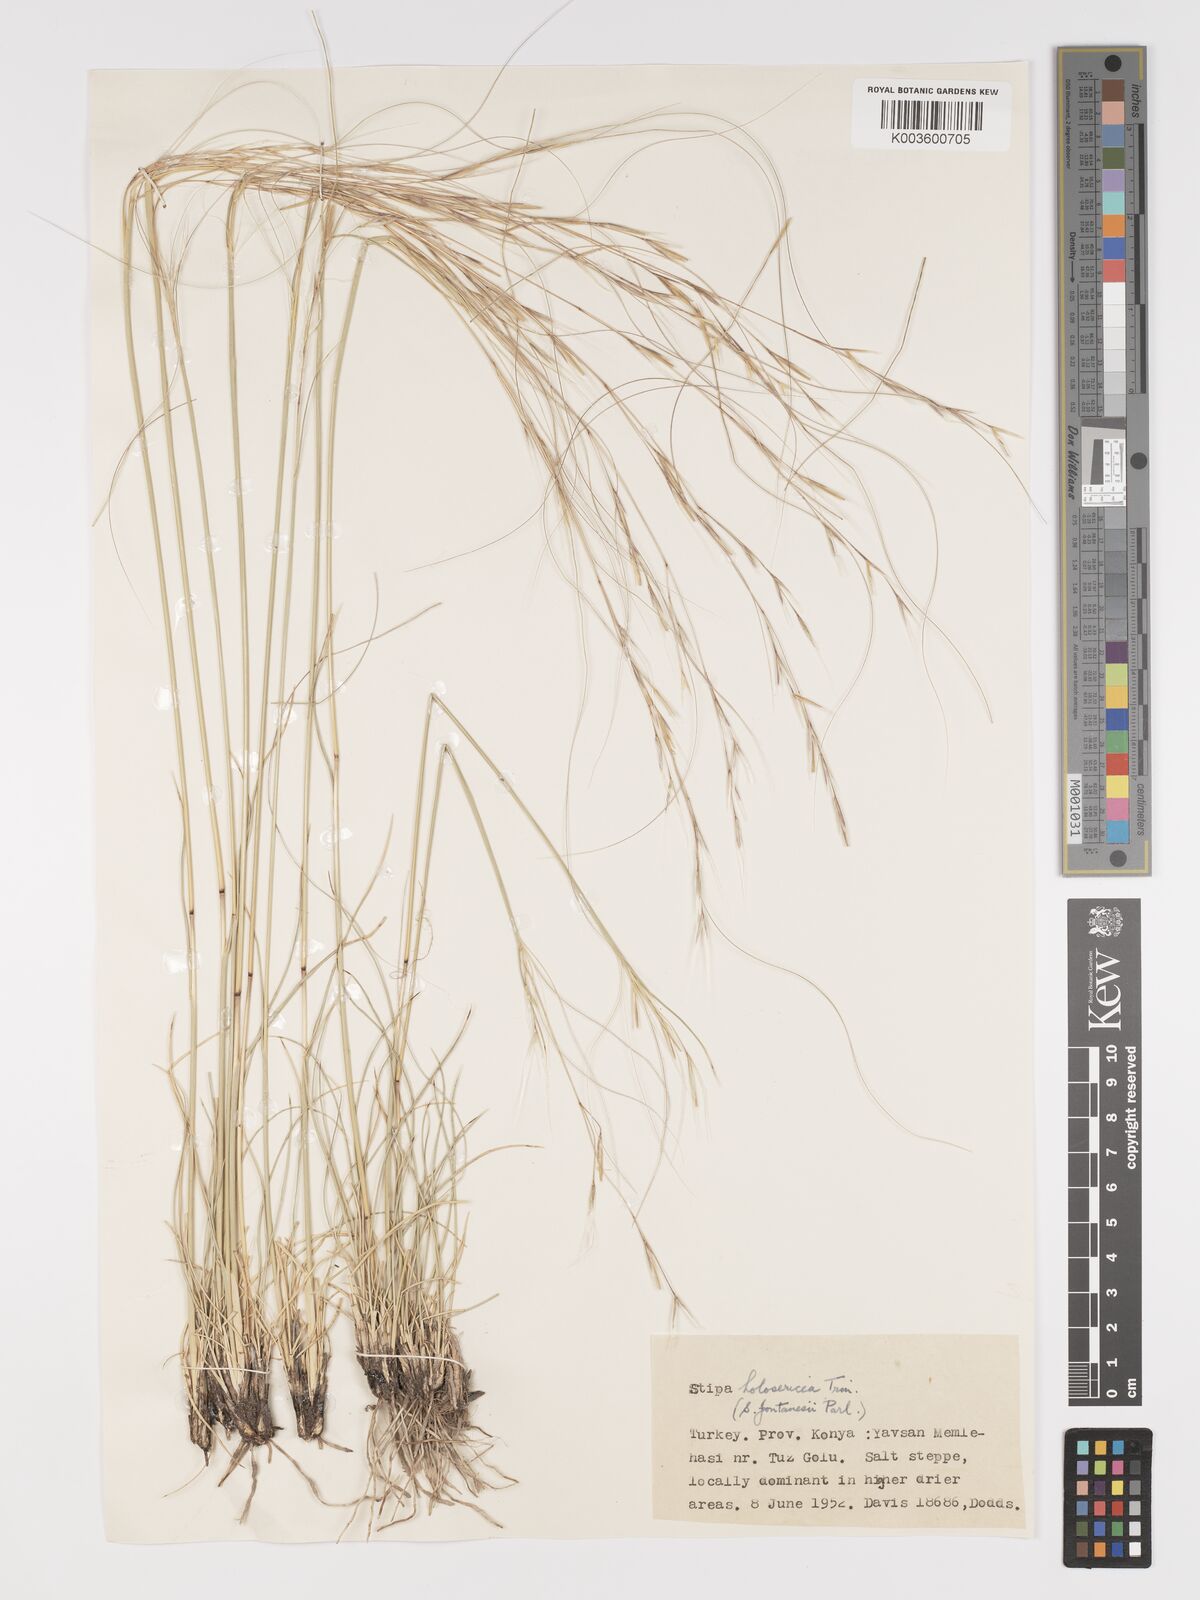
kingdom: Plantae
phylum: Tracheophyta
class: Liliopsida
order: Poales
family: Poaceae
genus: Stipa
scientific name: Stipa holosericea
